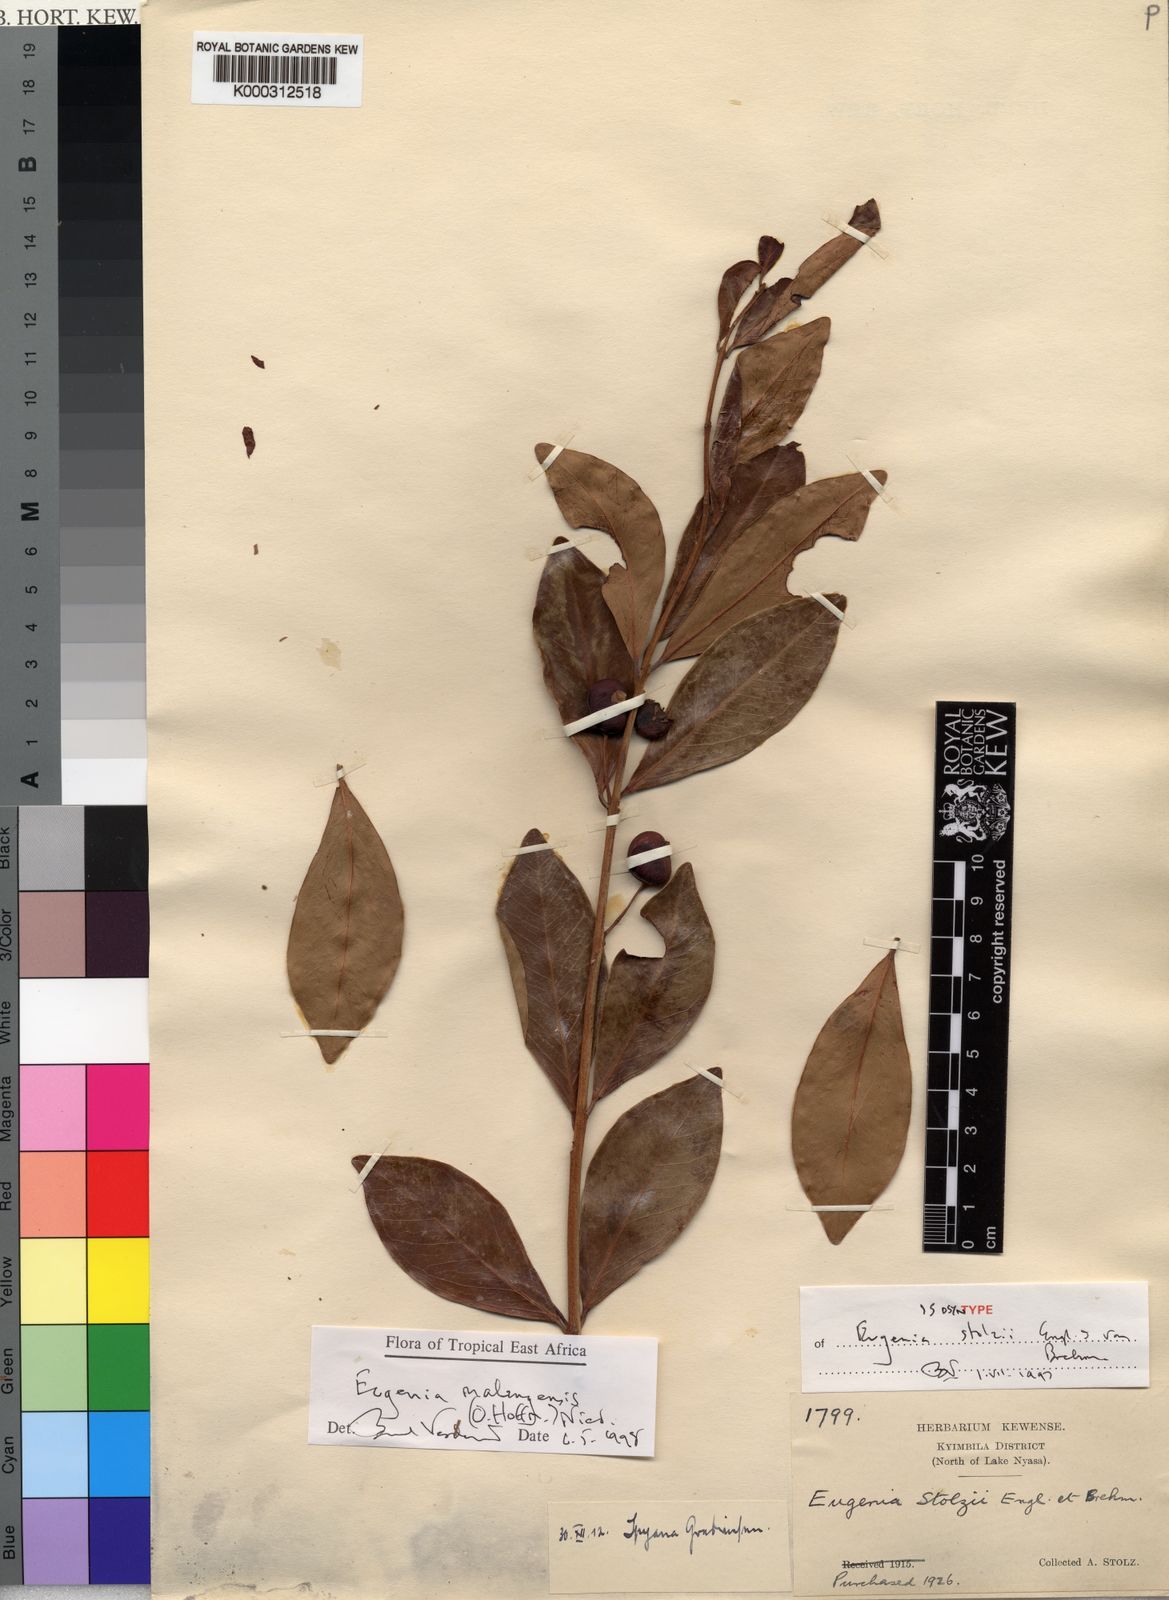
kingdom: Plantae
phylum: Tracheophyta
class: Magnoliopsida
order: Myrtales
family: Myrtaceae
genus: Eugenia
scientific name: Eugenia malangensis
